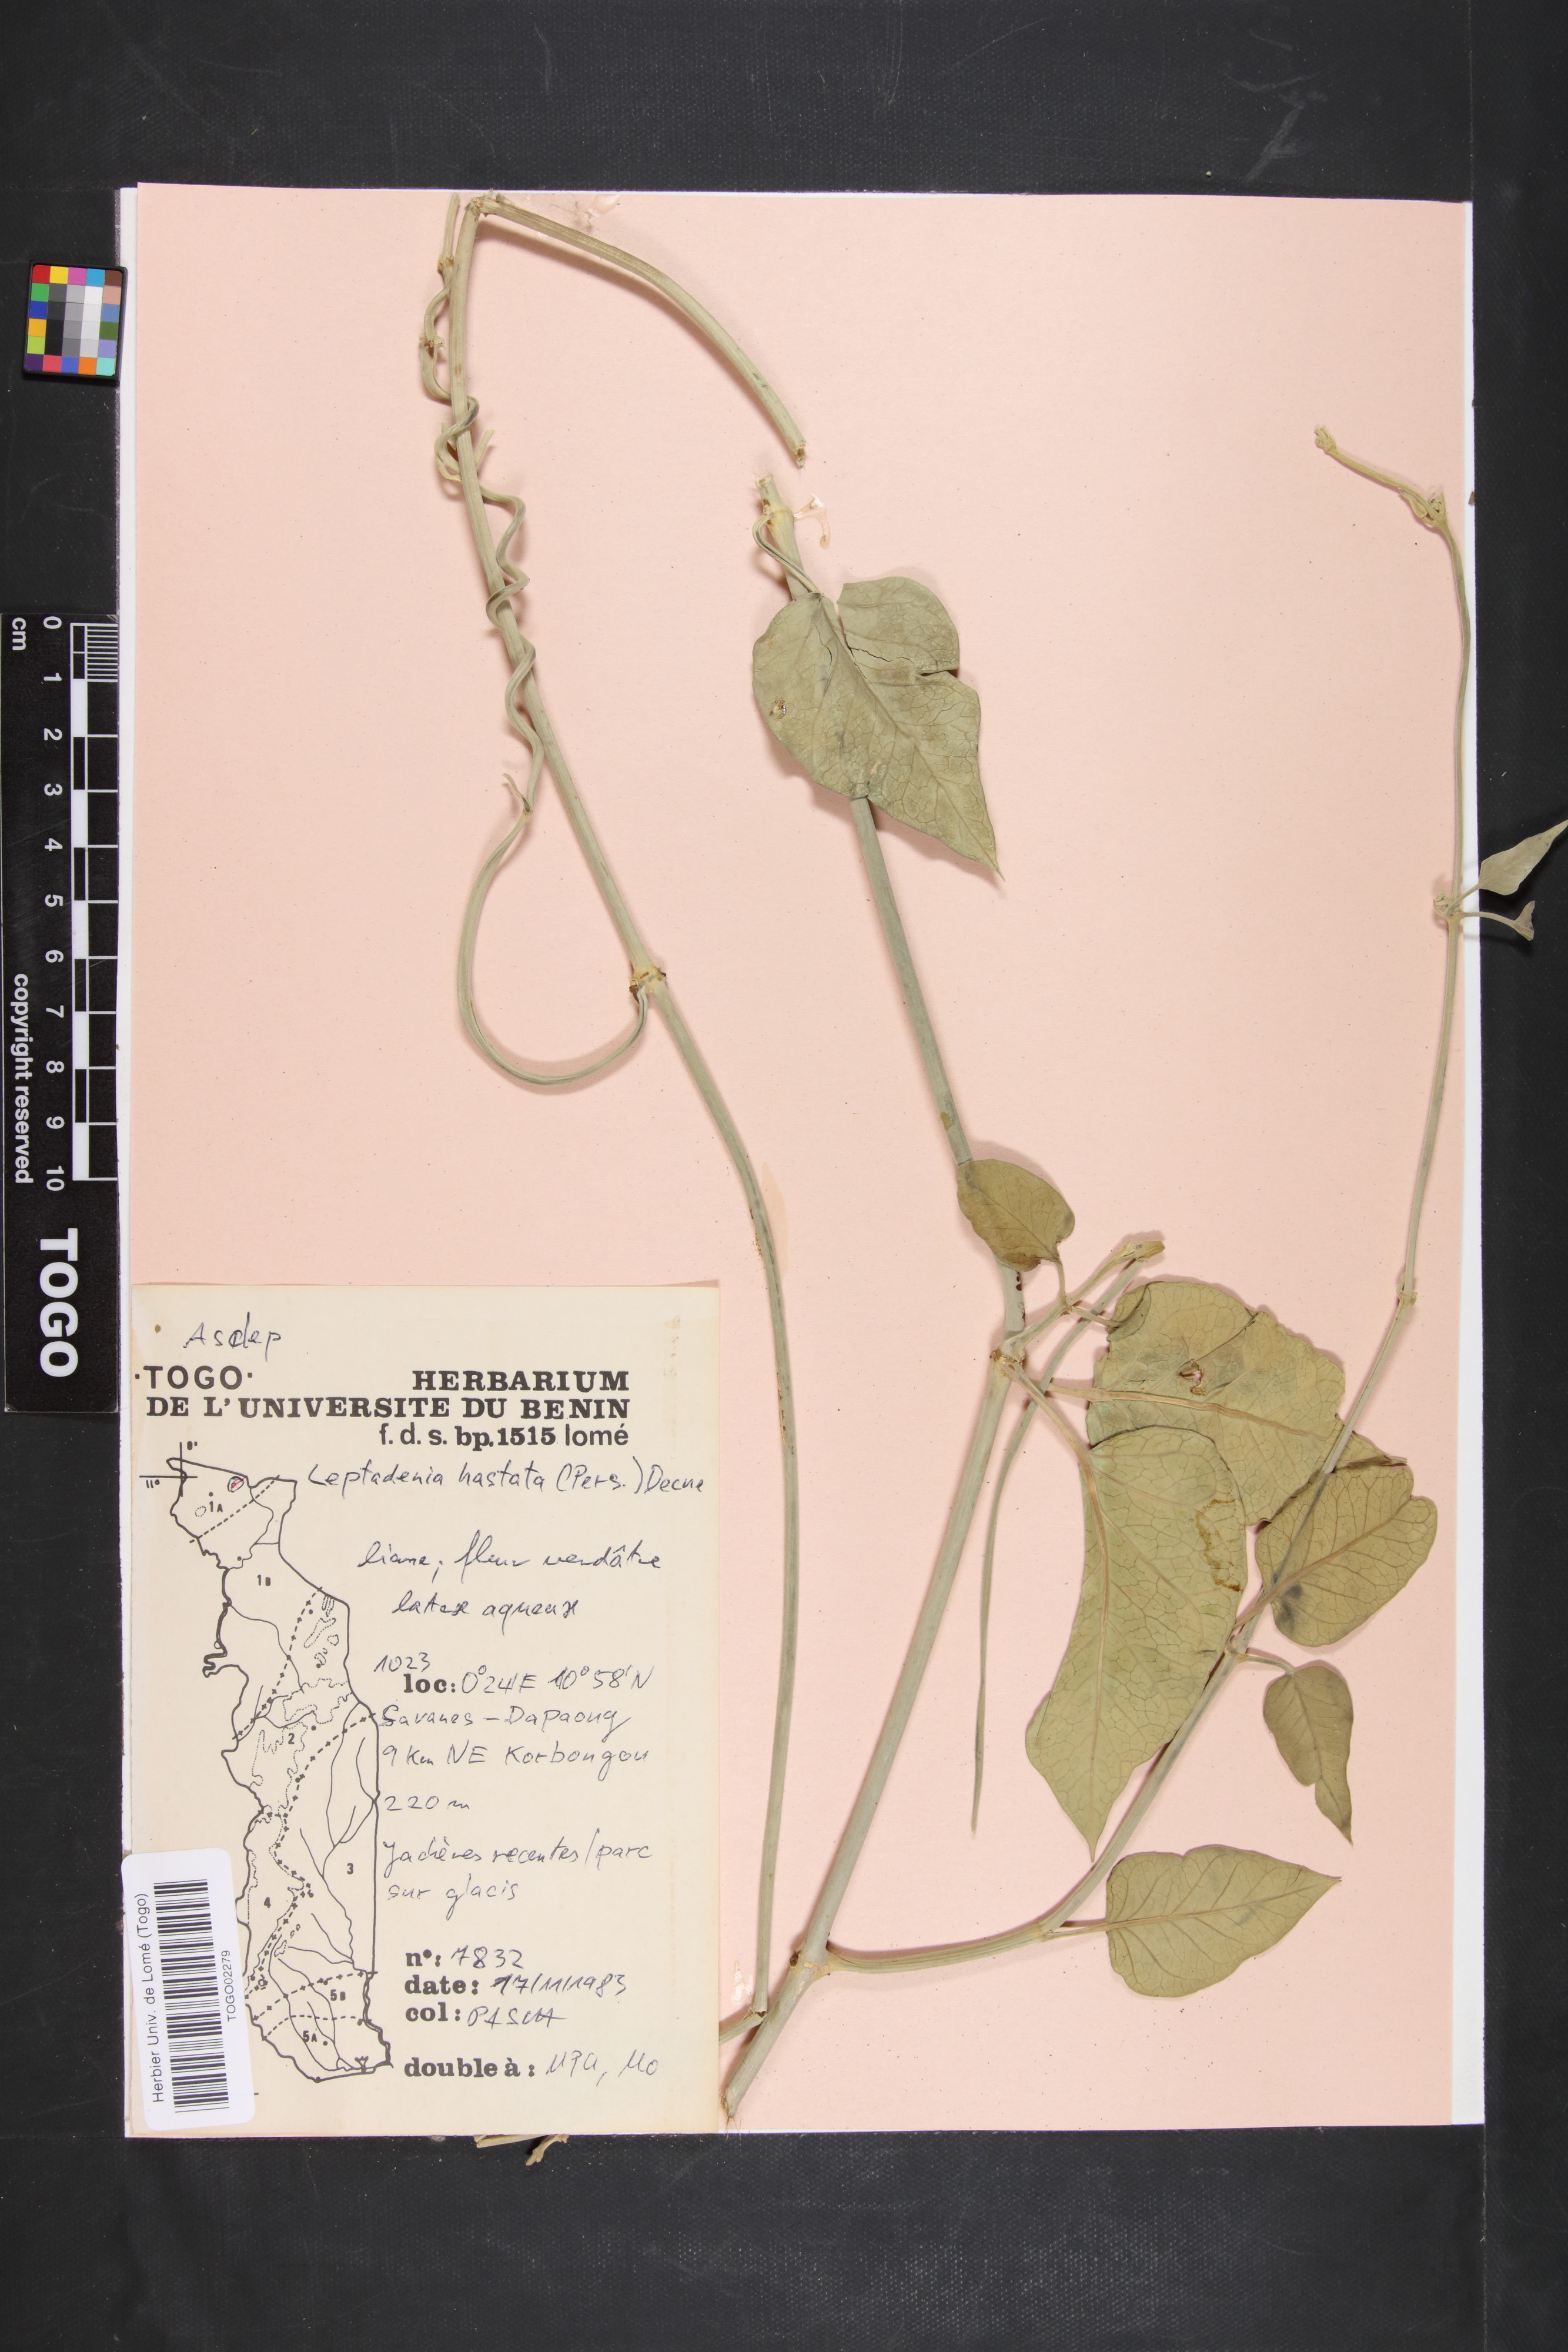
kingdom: Plantae
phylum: Tracheophyta
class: Magnoliopsida
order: Gentianales
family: Apocynaceae
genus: Leptadenia
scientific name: Leptadenia lanceolata
